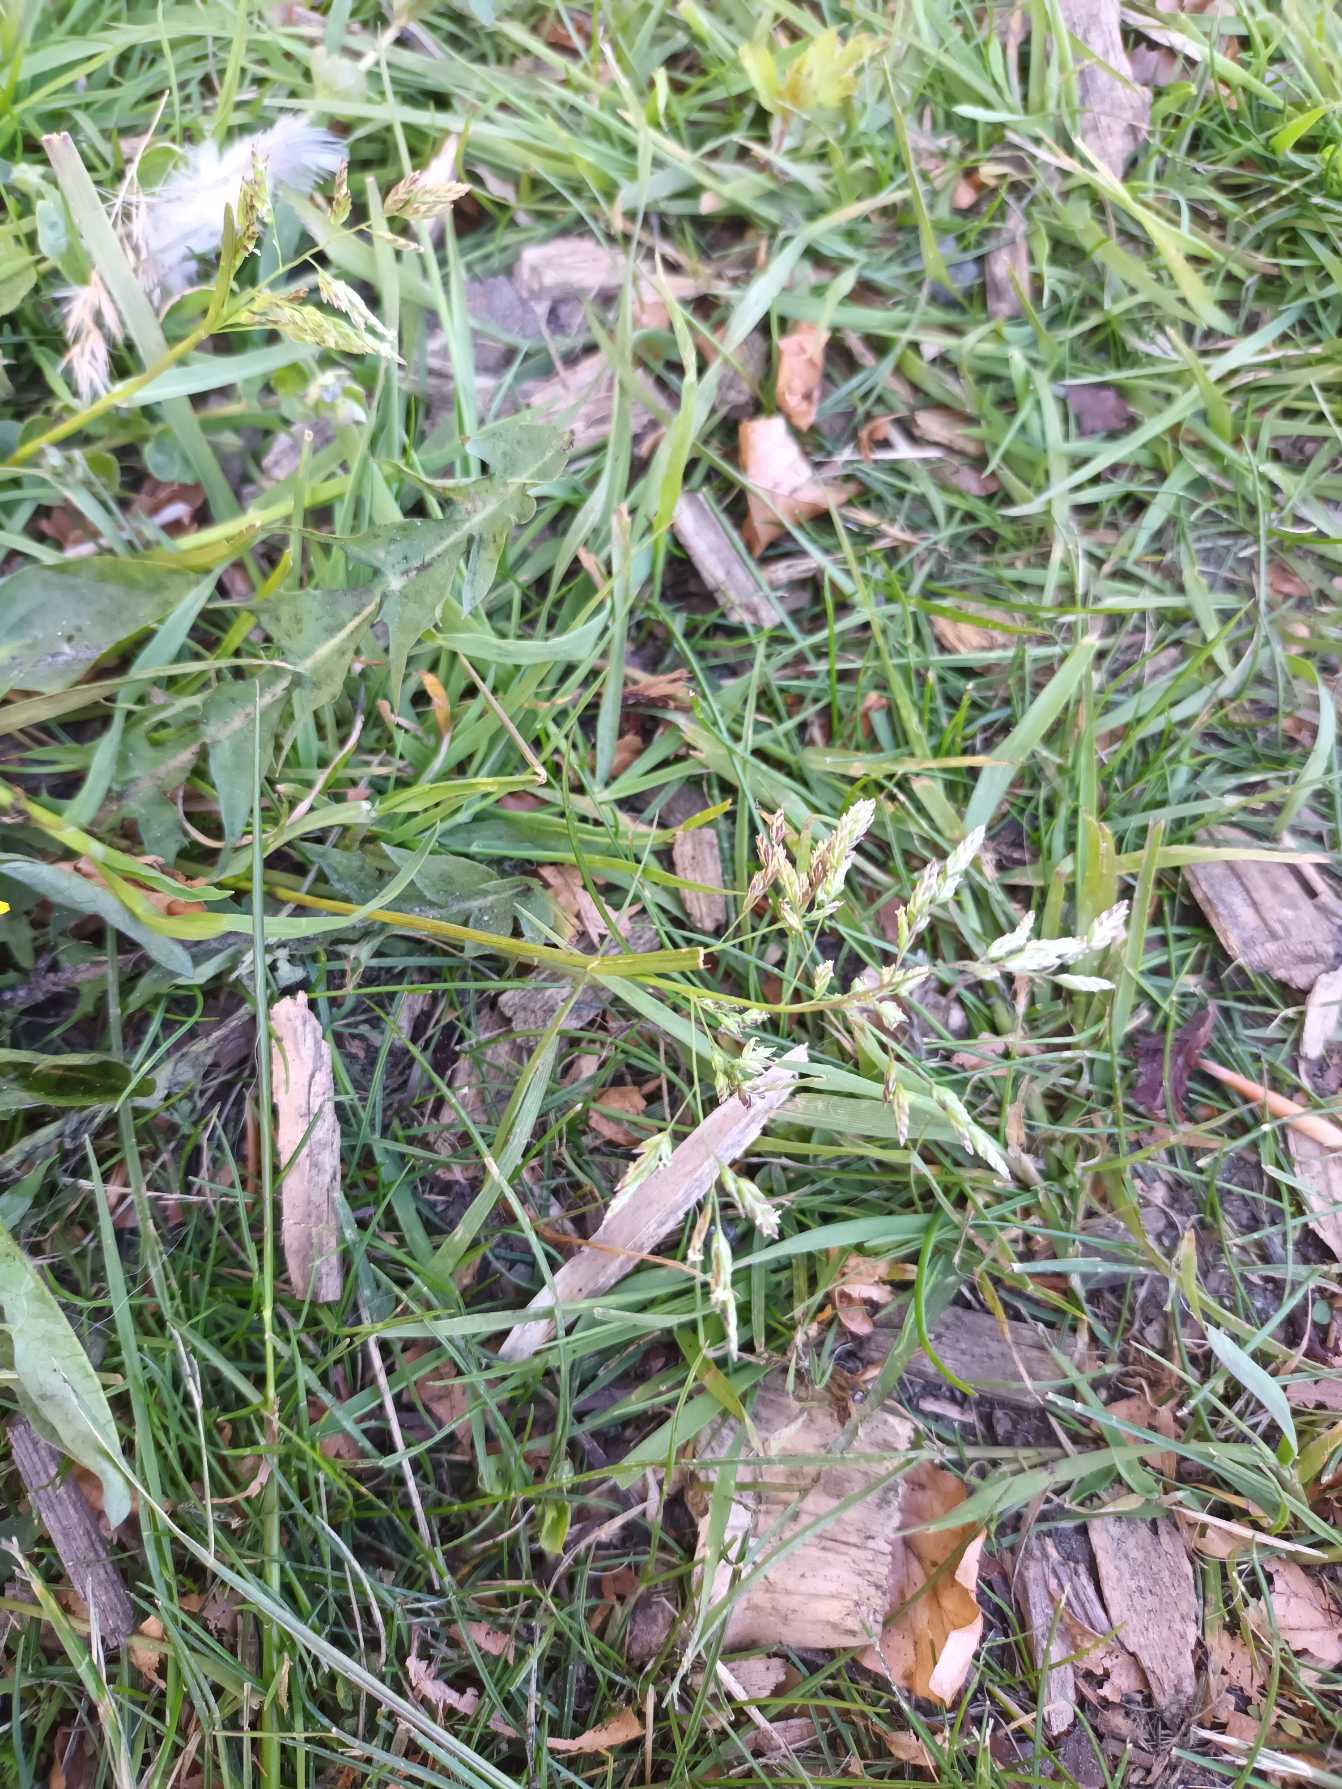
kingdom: Plantae
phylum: Tracheophyta
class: Liliopsida
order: Poales
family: Poaceae
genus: Poa
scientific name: Poa annua
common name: Enårig rapgræs
